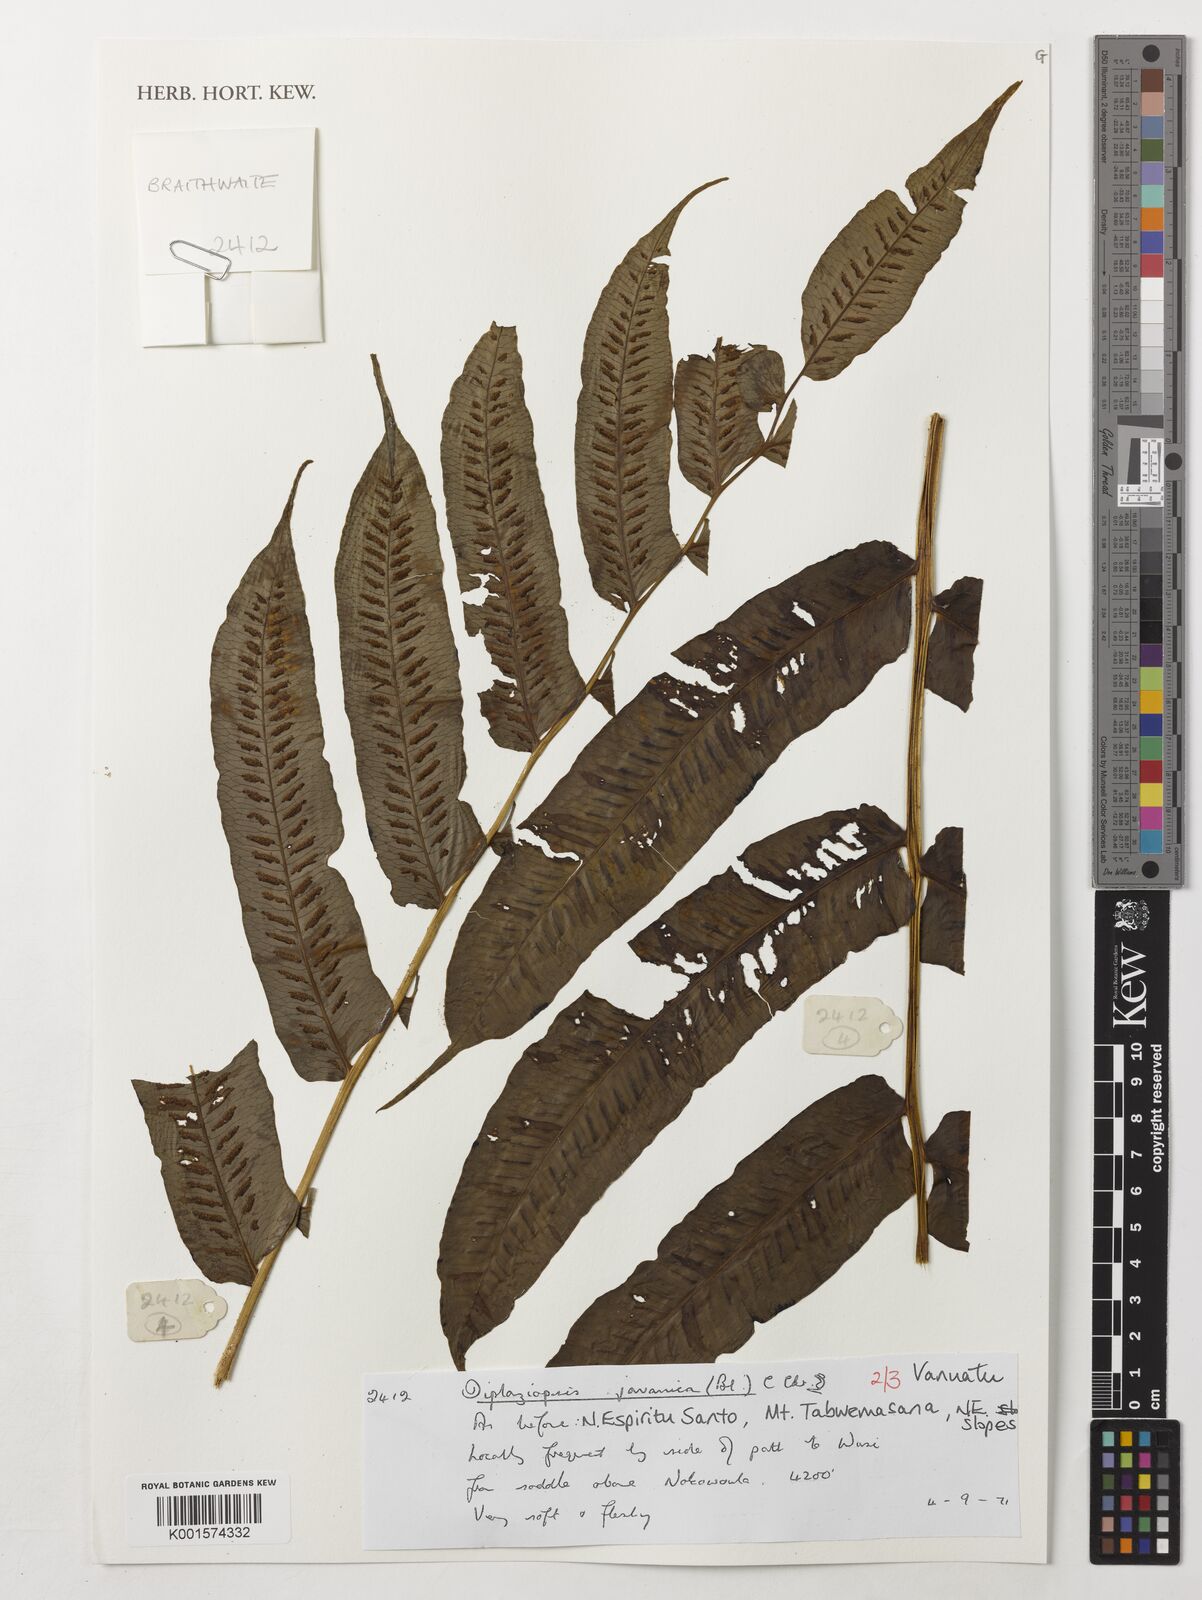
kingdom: Plantae
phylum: Tracheophyta
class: Polypodiopsida
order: Polypodiales
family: Diplaziopsidaceae
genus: Diplaziopsis
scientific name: Diplaziopsis javanica
